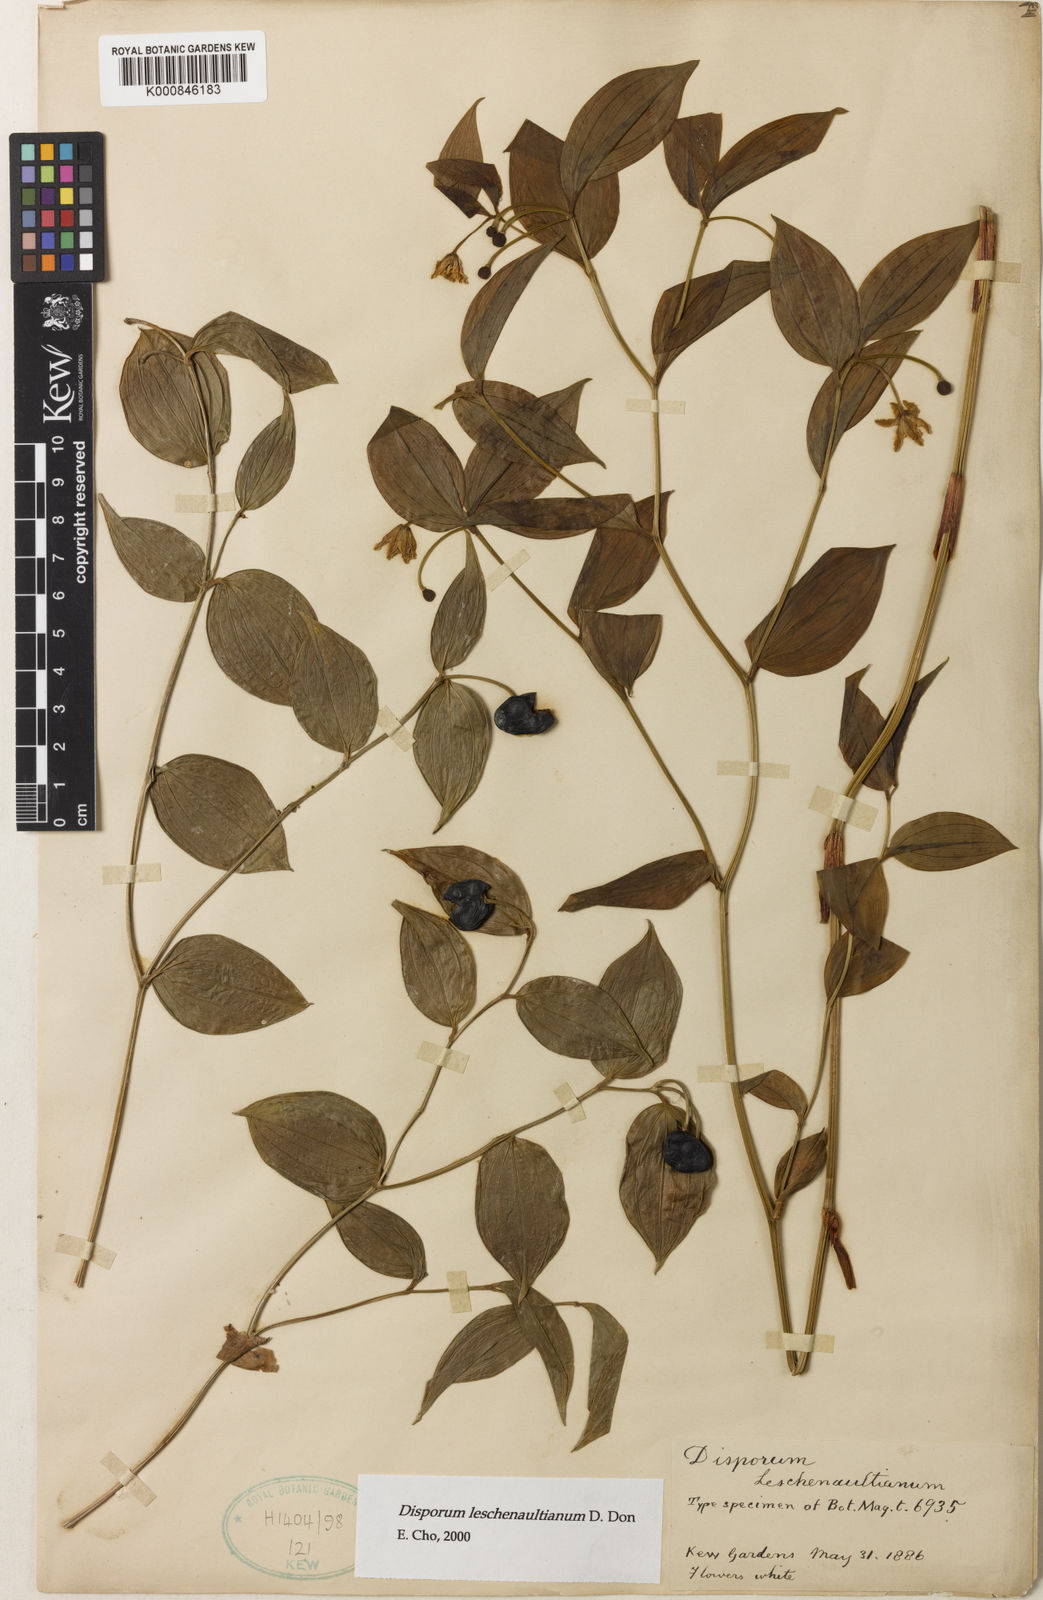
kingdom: Plantae
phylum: Tracheophyta
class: Liliopsida
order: Liliales
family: Colchicaceae
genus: Disporum
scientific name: Disporum cantoniense
